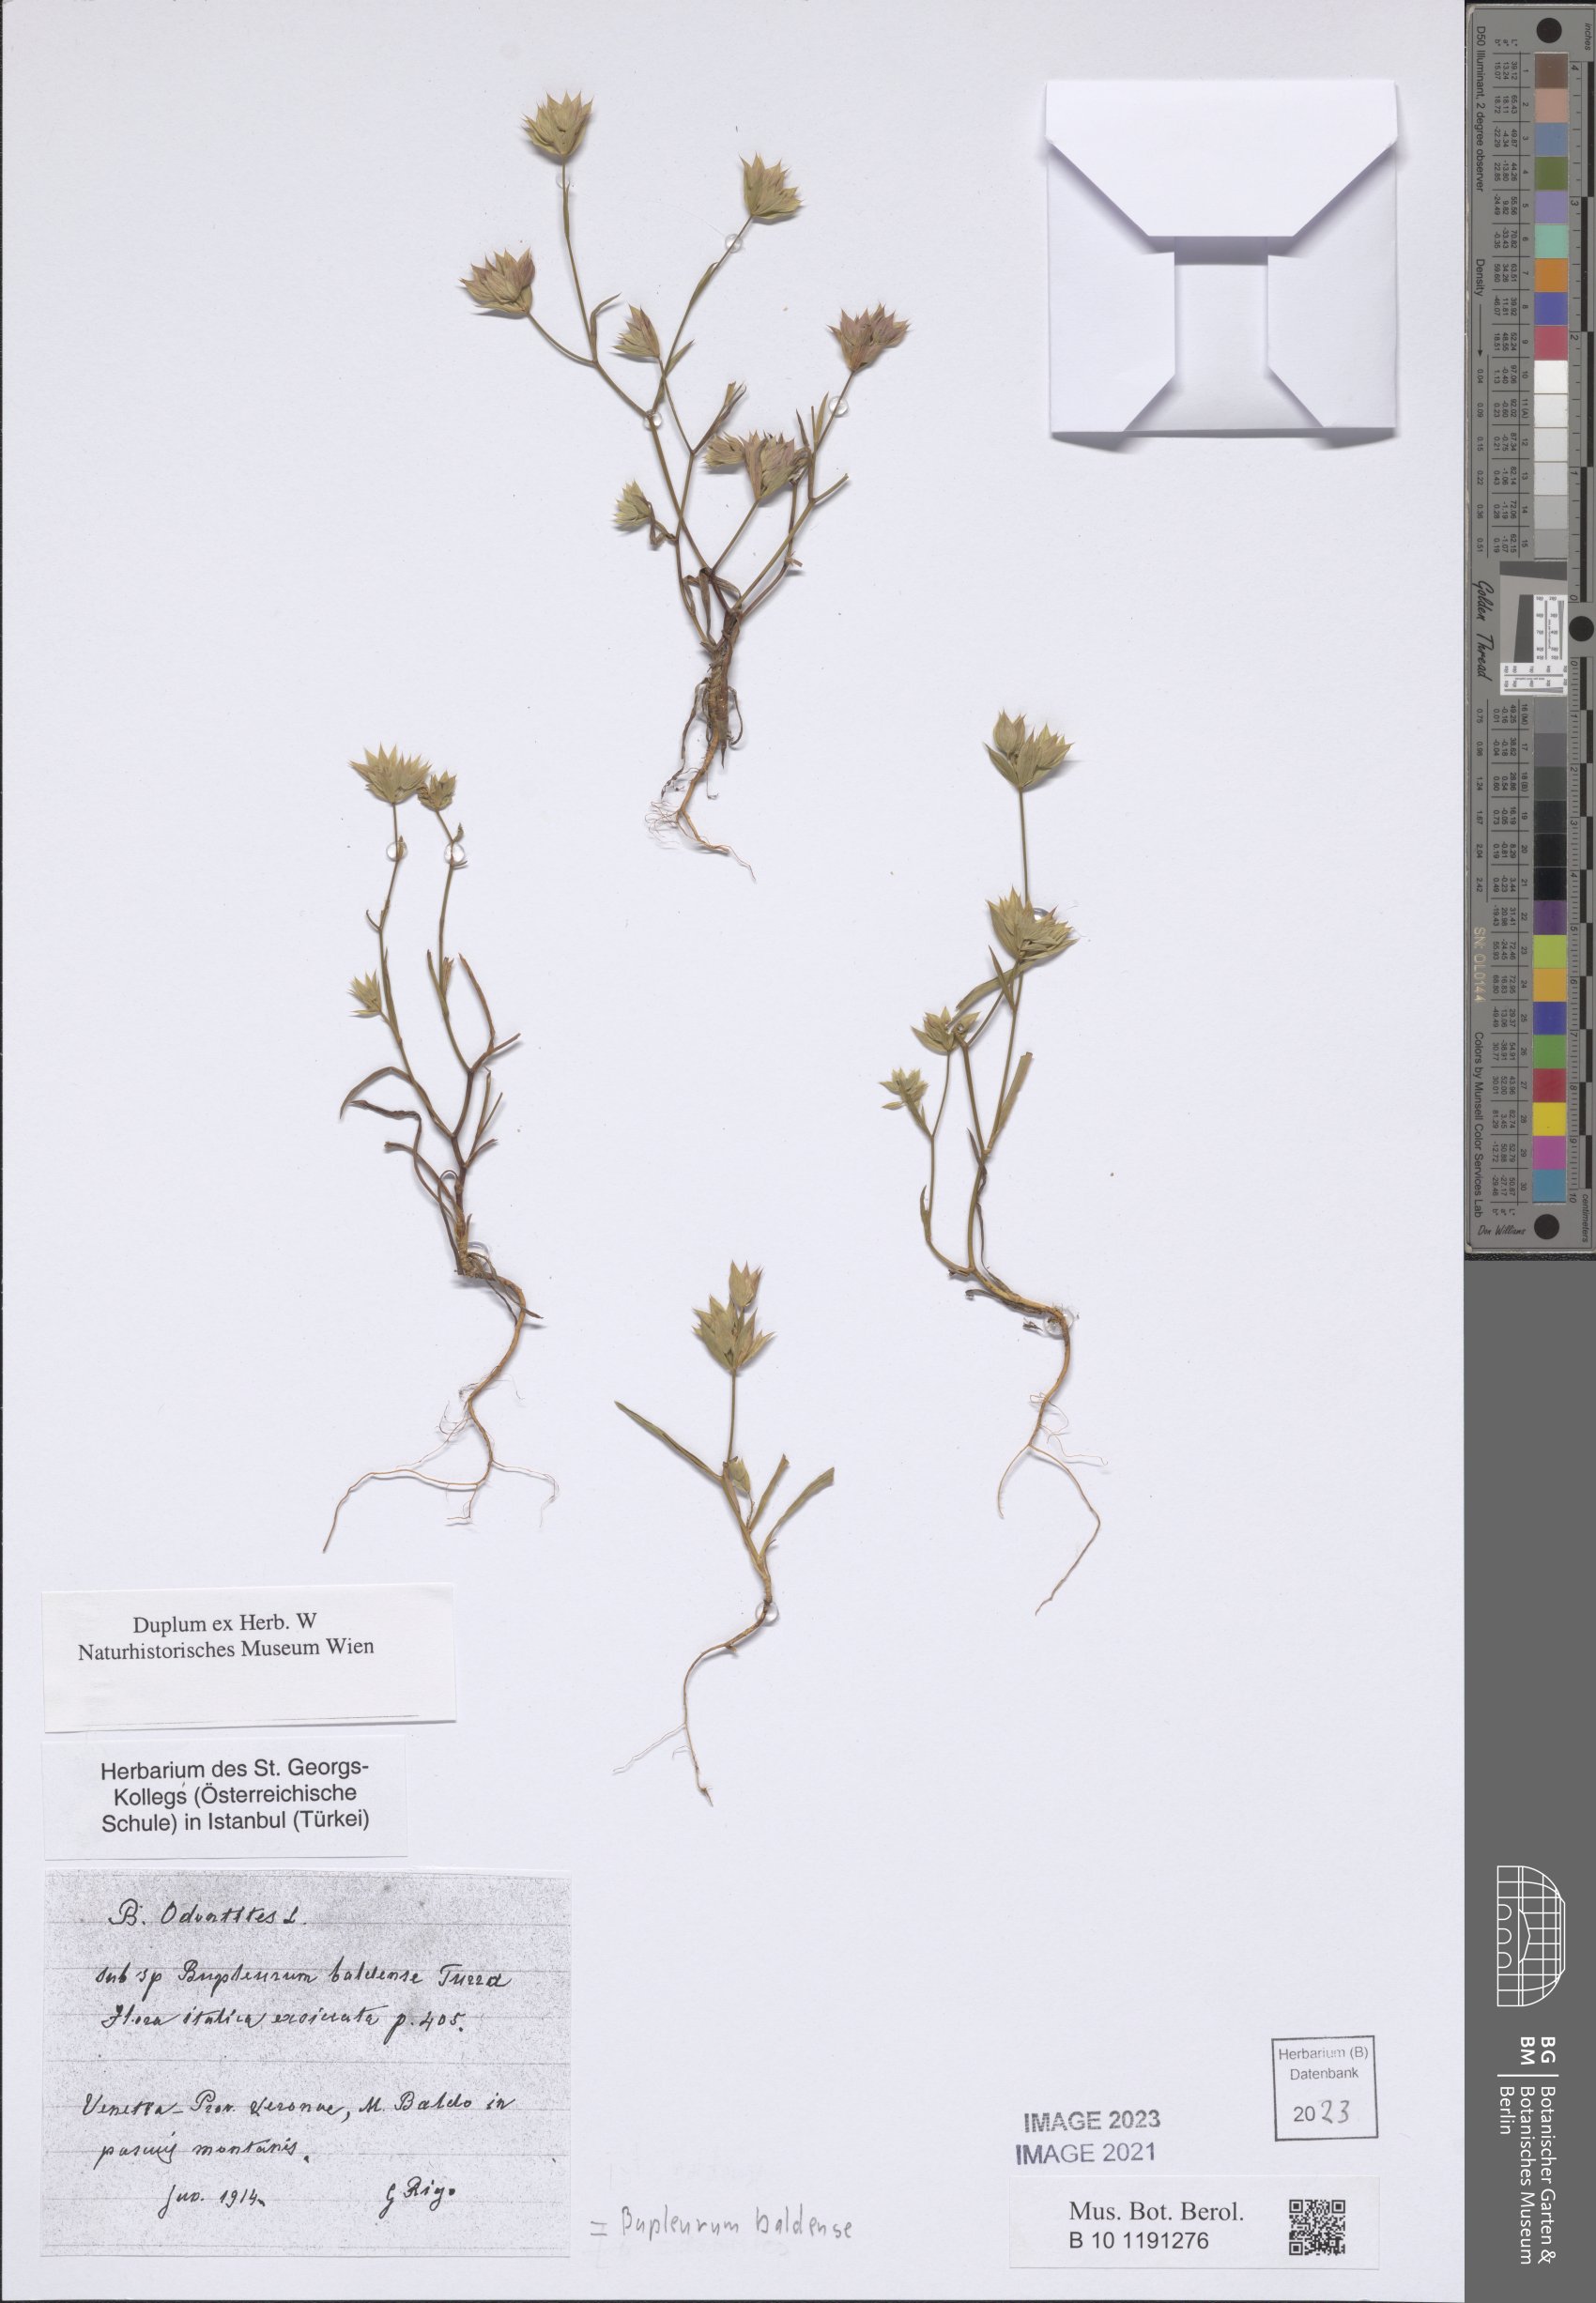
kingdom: Plantae
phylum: Tracheophyta
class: Magnoliopsida
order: Apiales
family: Apiaceae
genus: Bupleurum
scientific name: Bupleurum baldense
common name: Small hare's-ear
